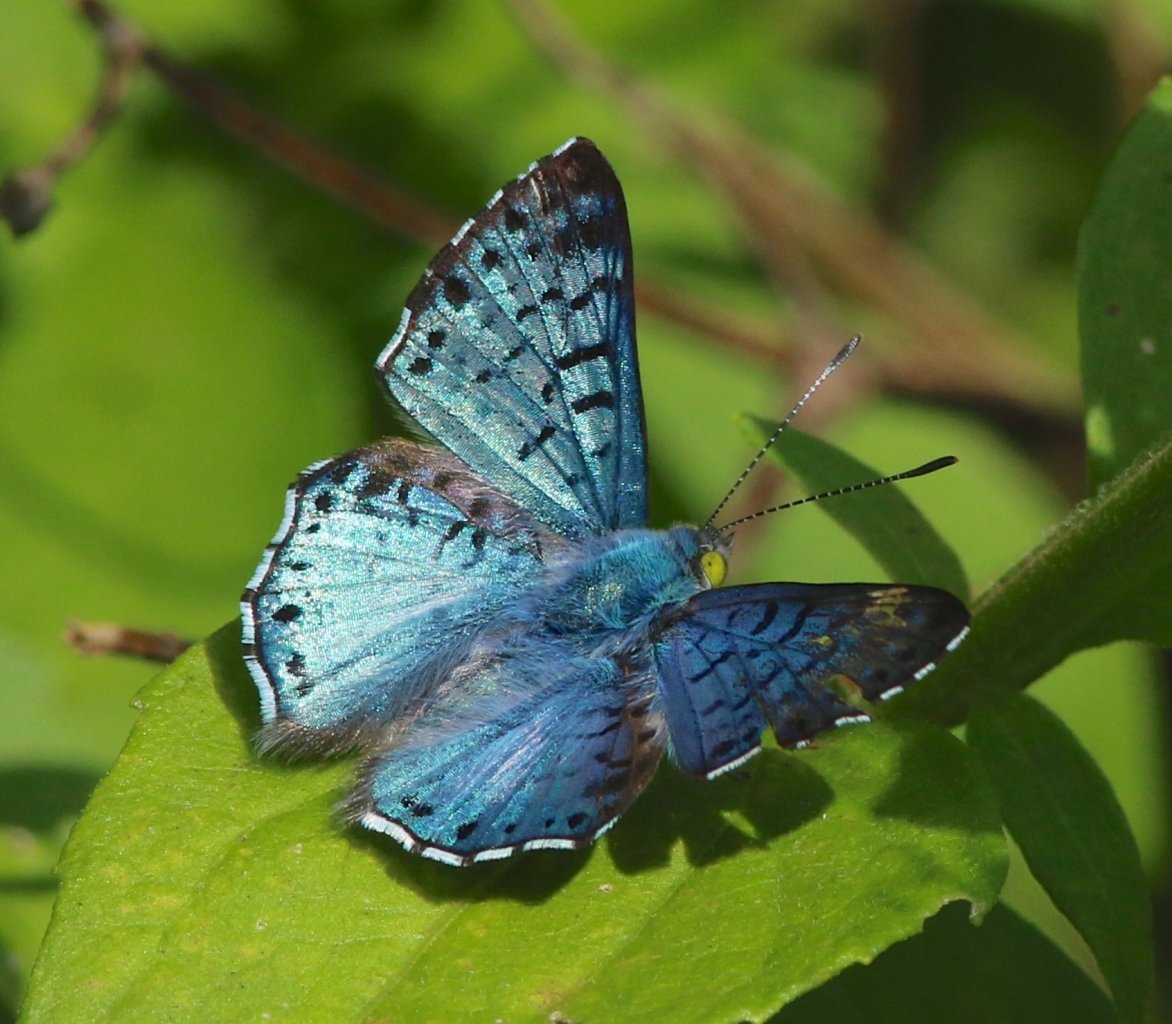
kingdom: Animalia
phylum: Arthropoda
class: Insecta
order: Lepidoptera
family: Riodinidae
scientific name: Riodinidae
